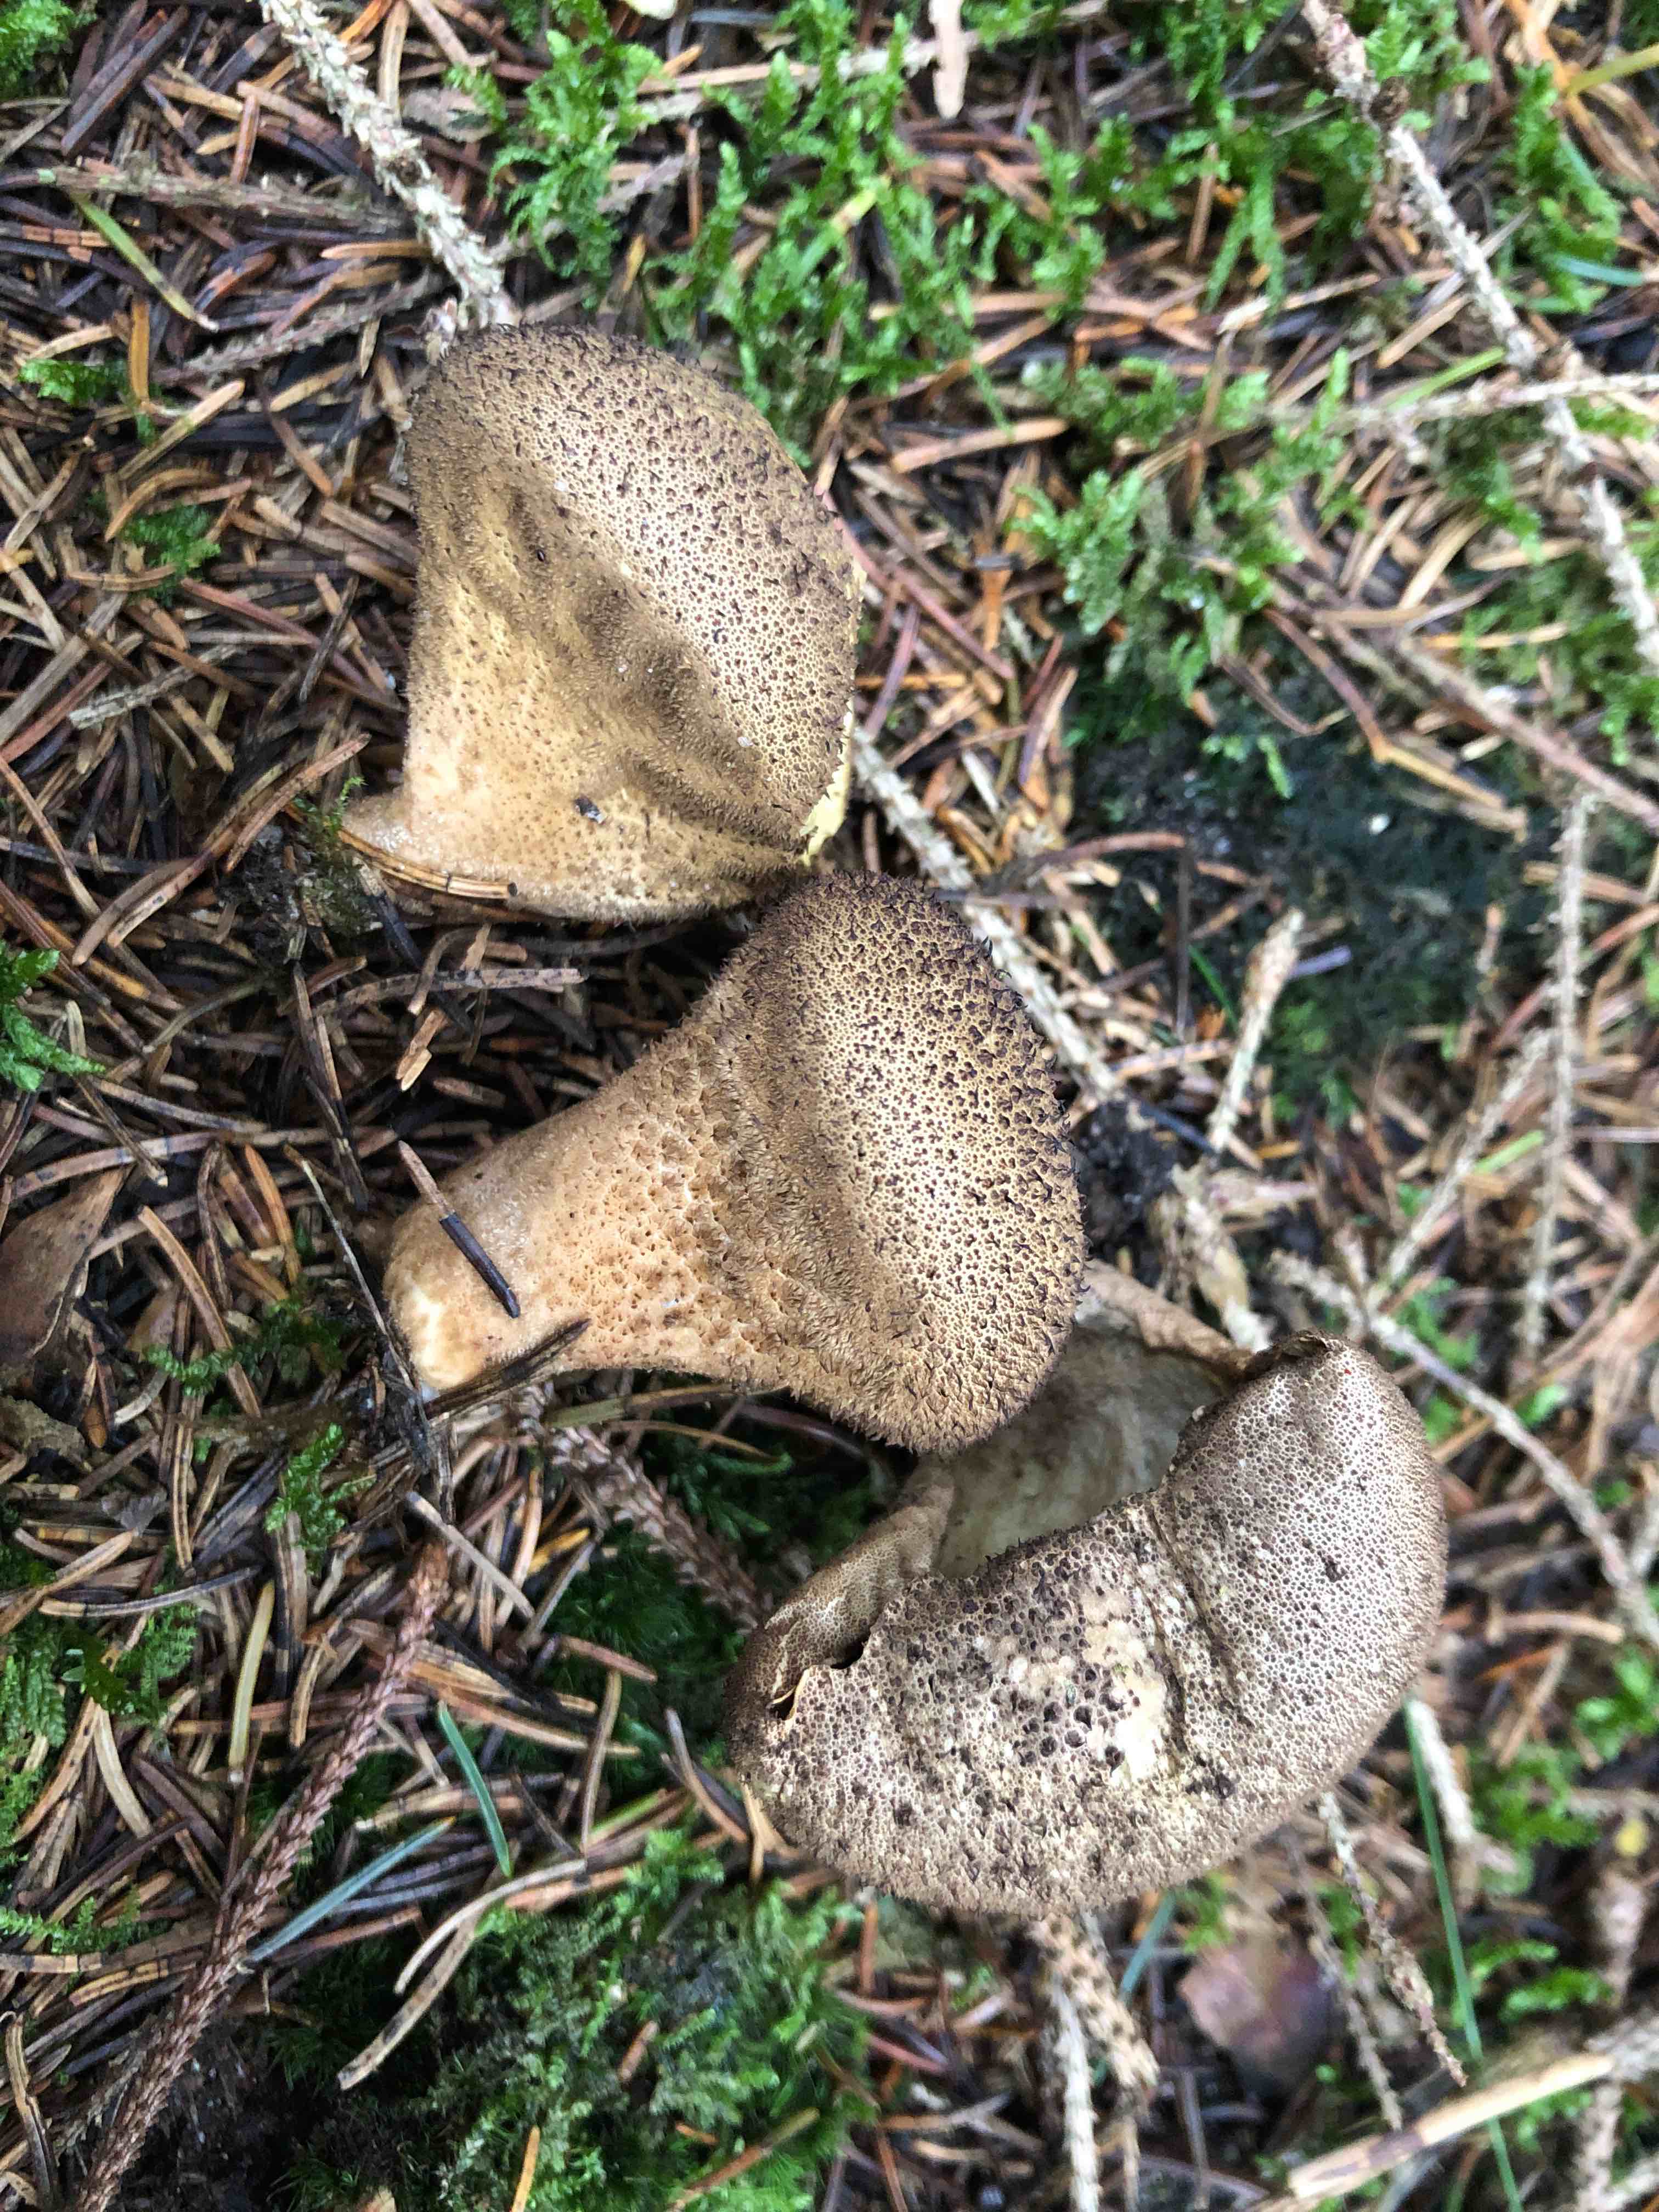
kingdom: Fungi
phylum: Basidiomycota
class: Agaricomycetes
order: Agaricales
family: Lycoperdaceae
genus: Lycoperdon
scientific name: Lycoperdon nigrescens
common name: sortagtig støvbold
